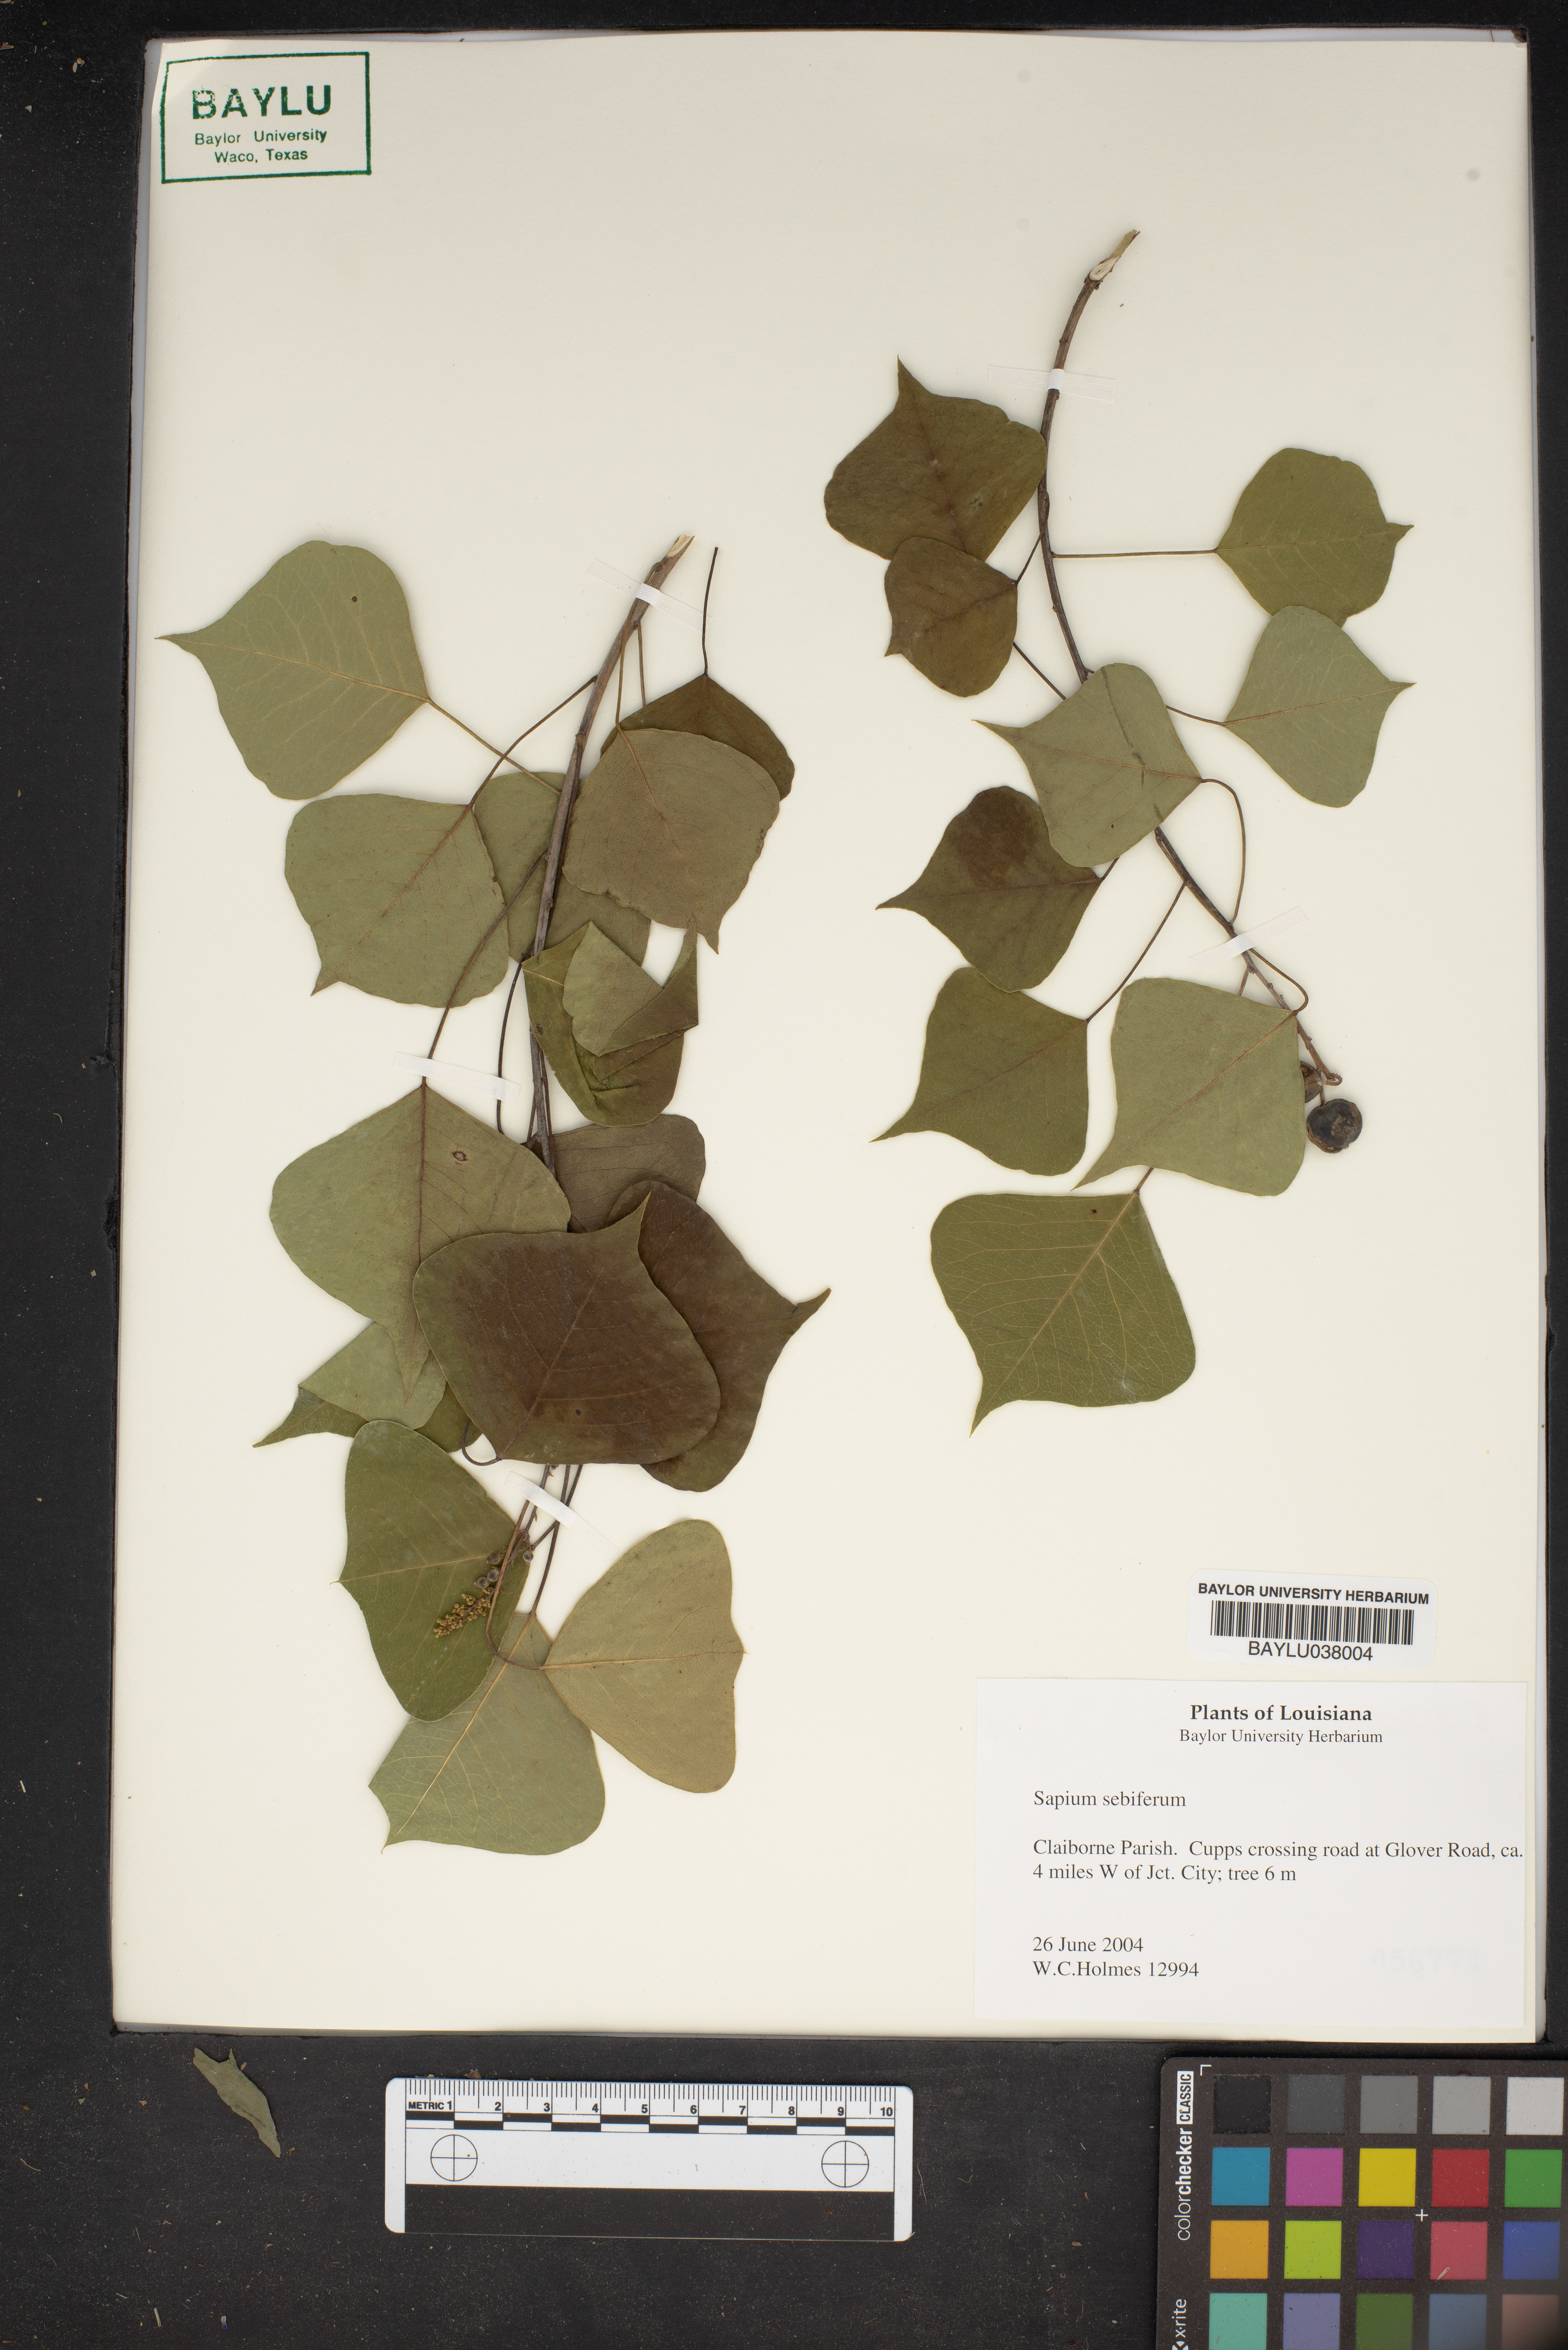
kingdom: Plantae
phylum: Tracheophyta
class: Magnoliopsida
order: Malpighiales
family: Euphorbiaceae
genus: Triadica
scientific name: Triadica sebifera
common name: Chinese tallow
